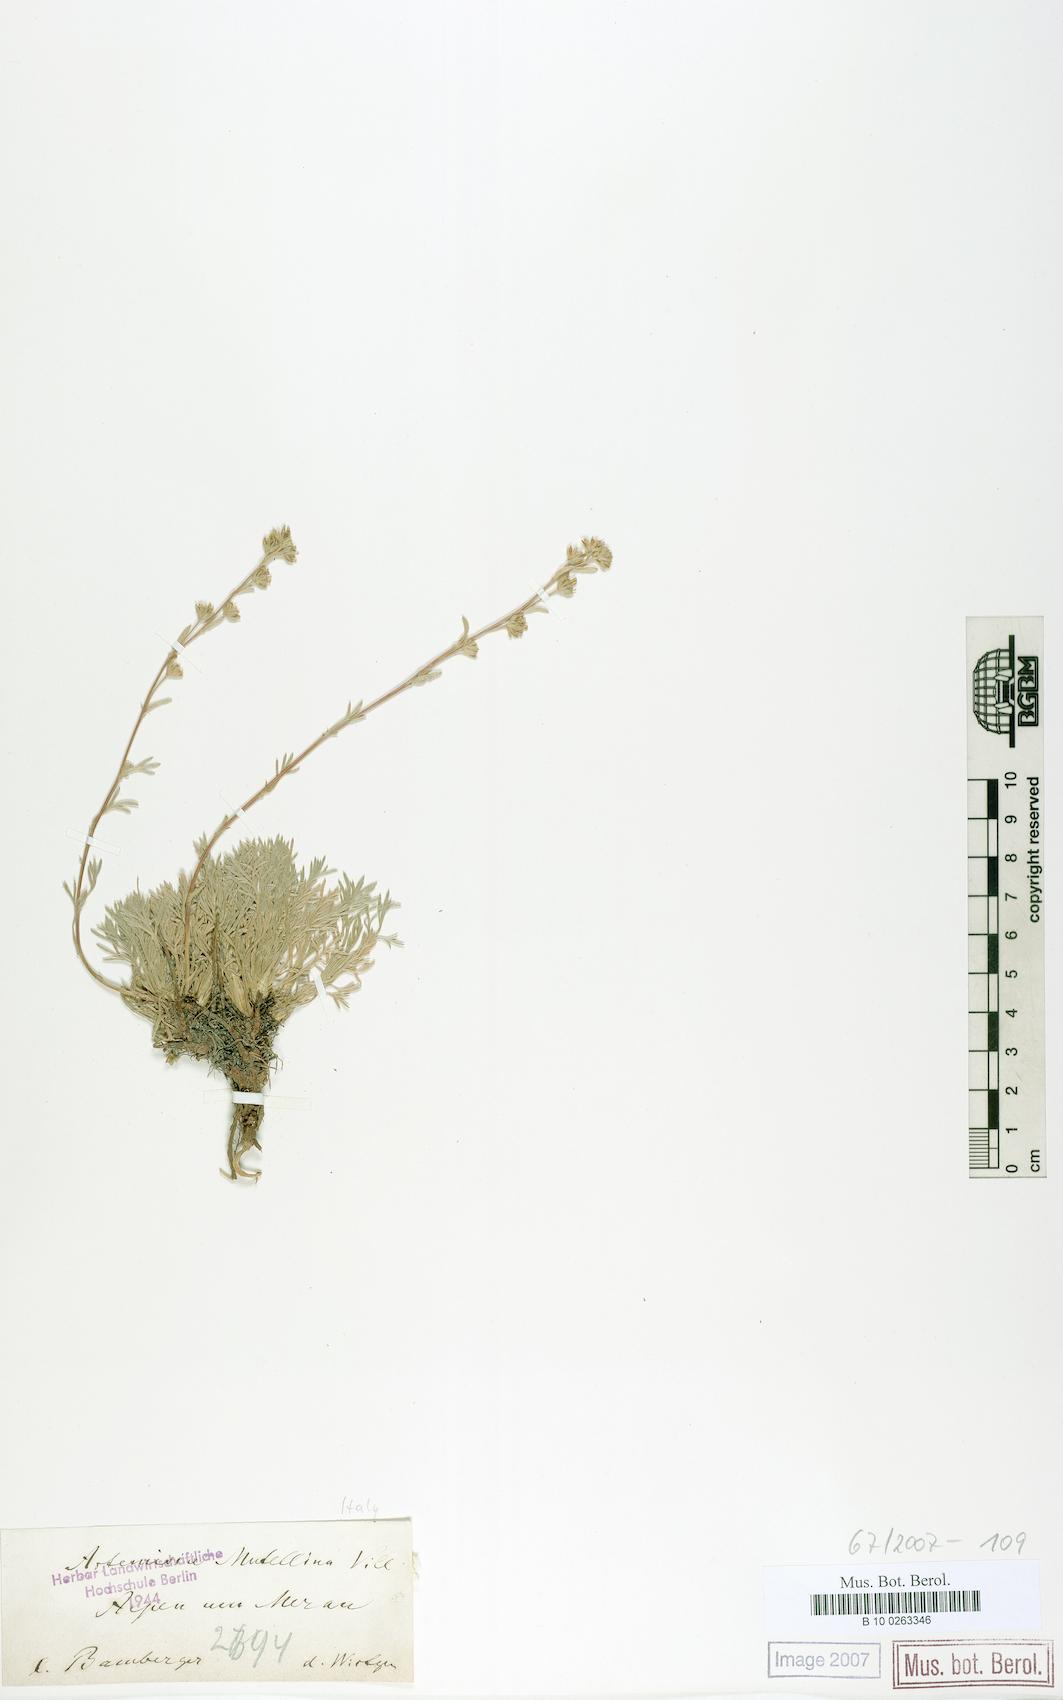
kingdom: Plantae
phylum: Tracheophyta
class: Magnoliopsida
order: Asterales
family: Asteraceae
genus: Artemisia
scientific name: Artemisia mutellina
